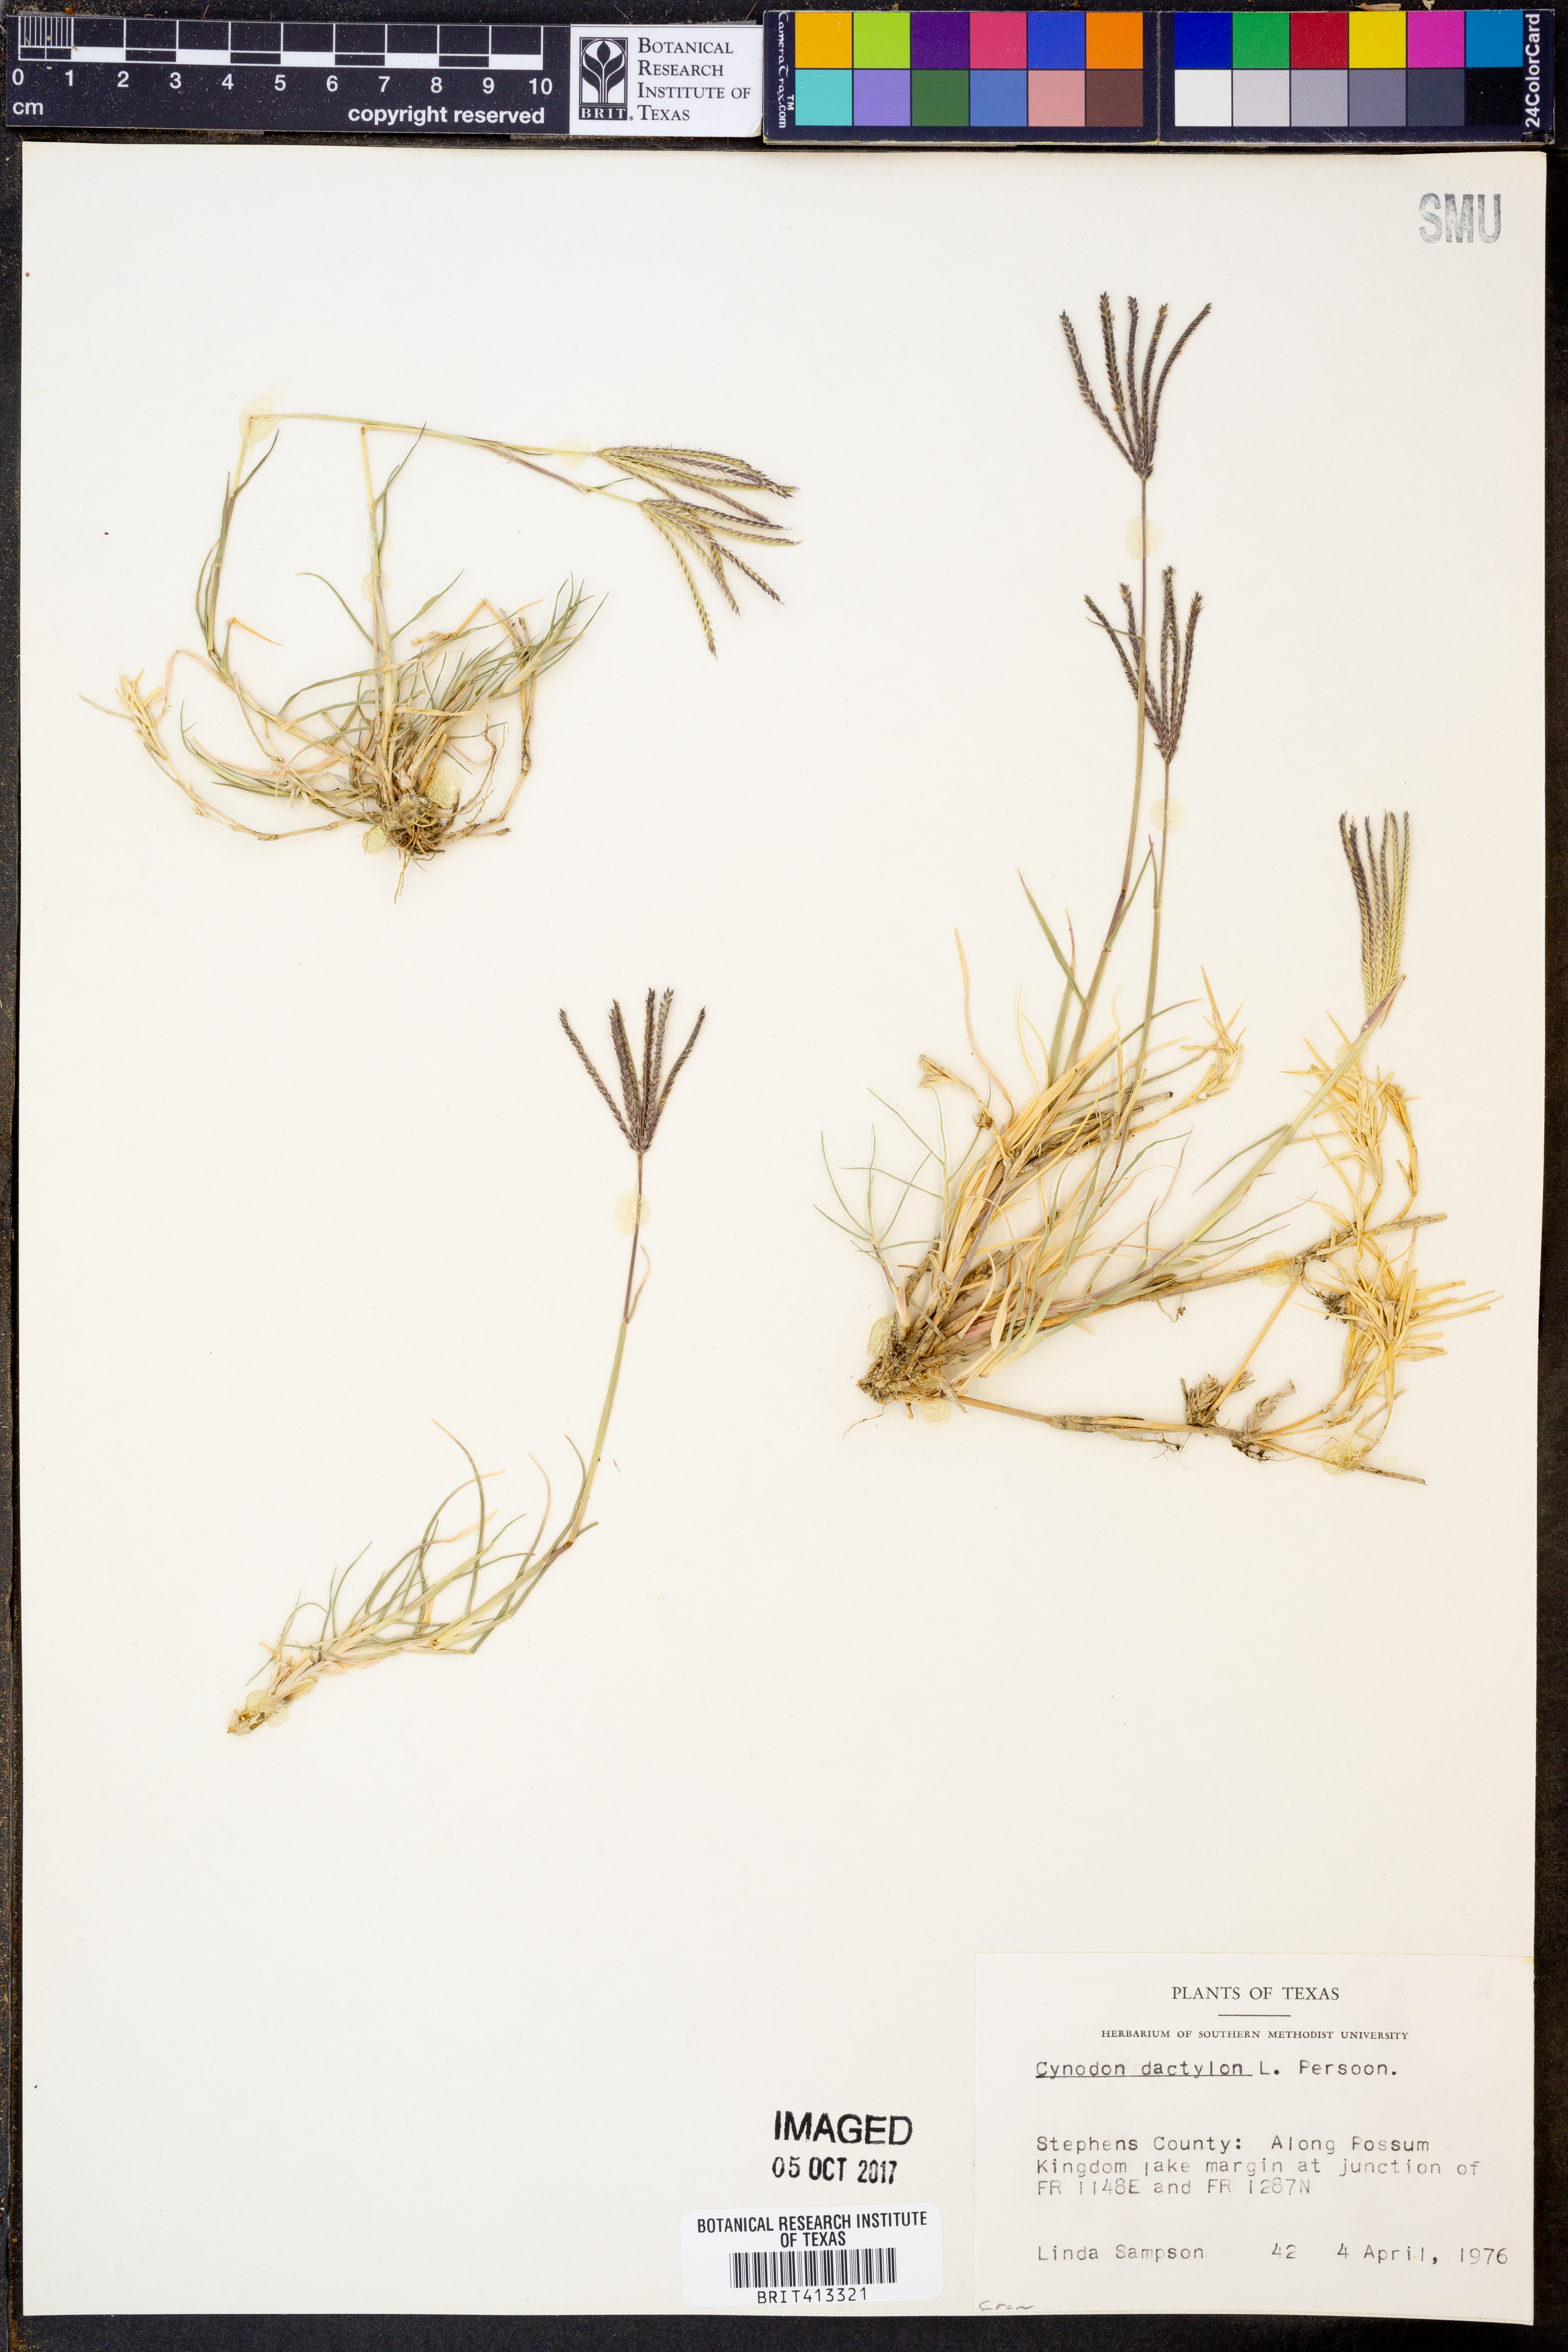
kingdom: Plantae
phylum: Tracheophyta
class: Liliopsida
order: Poales
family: Poaceae
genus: Cynodon
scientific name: Cynodon dactylon
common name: Bermuda grass
